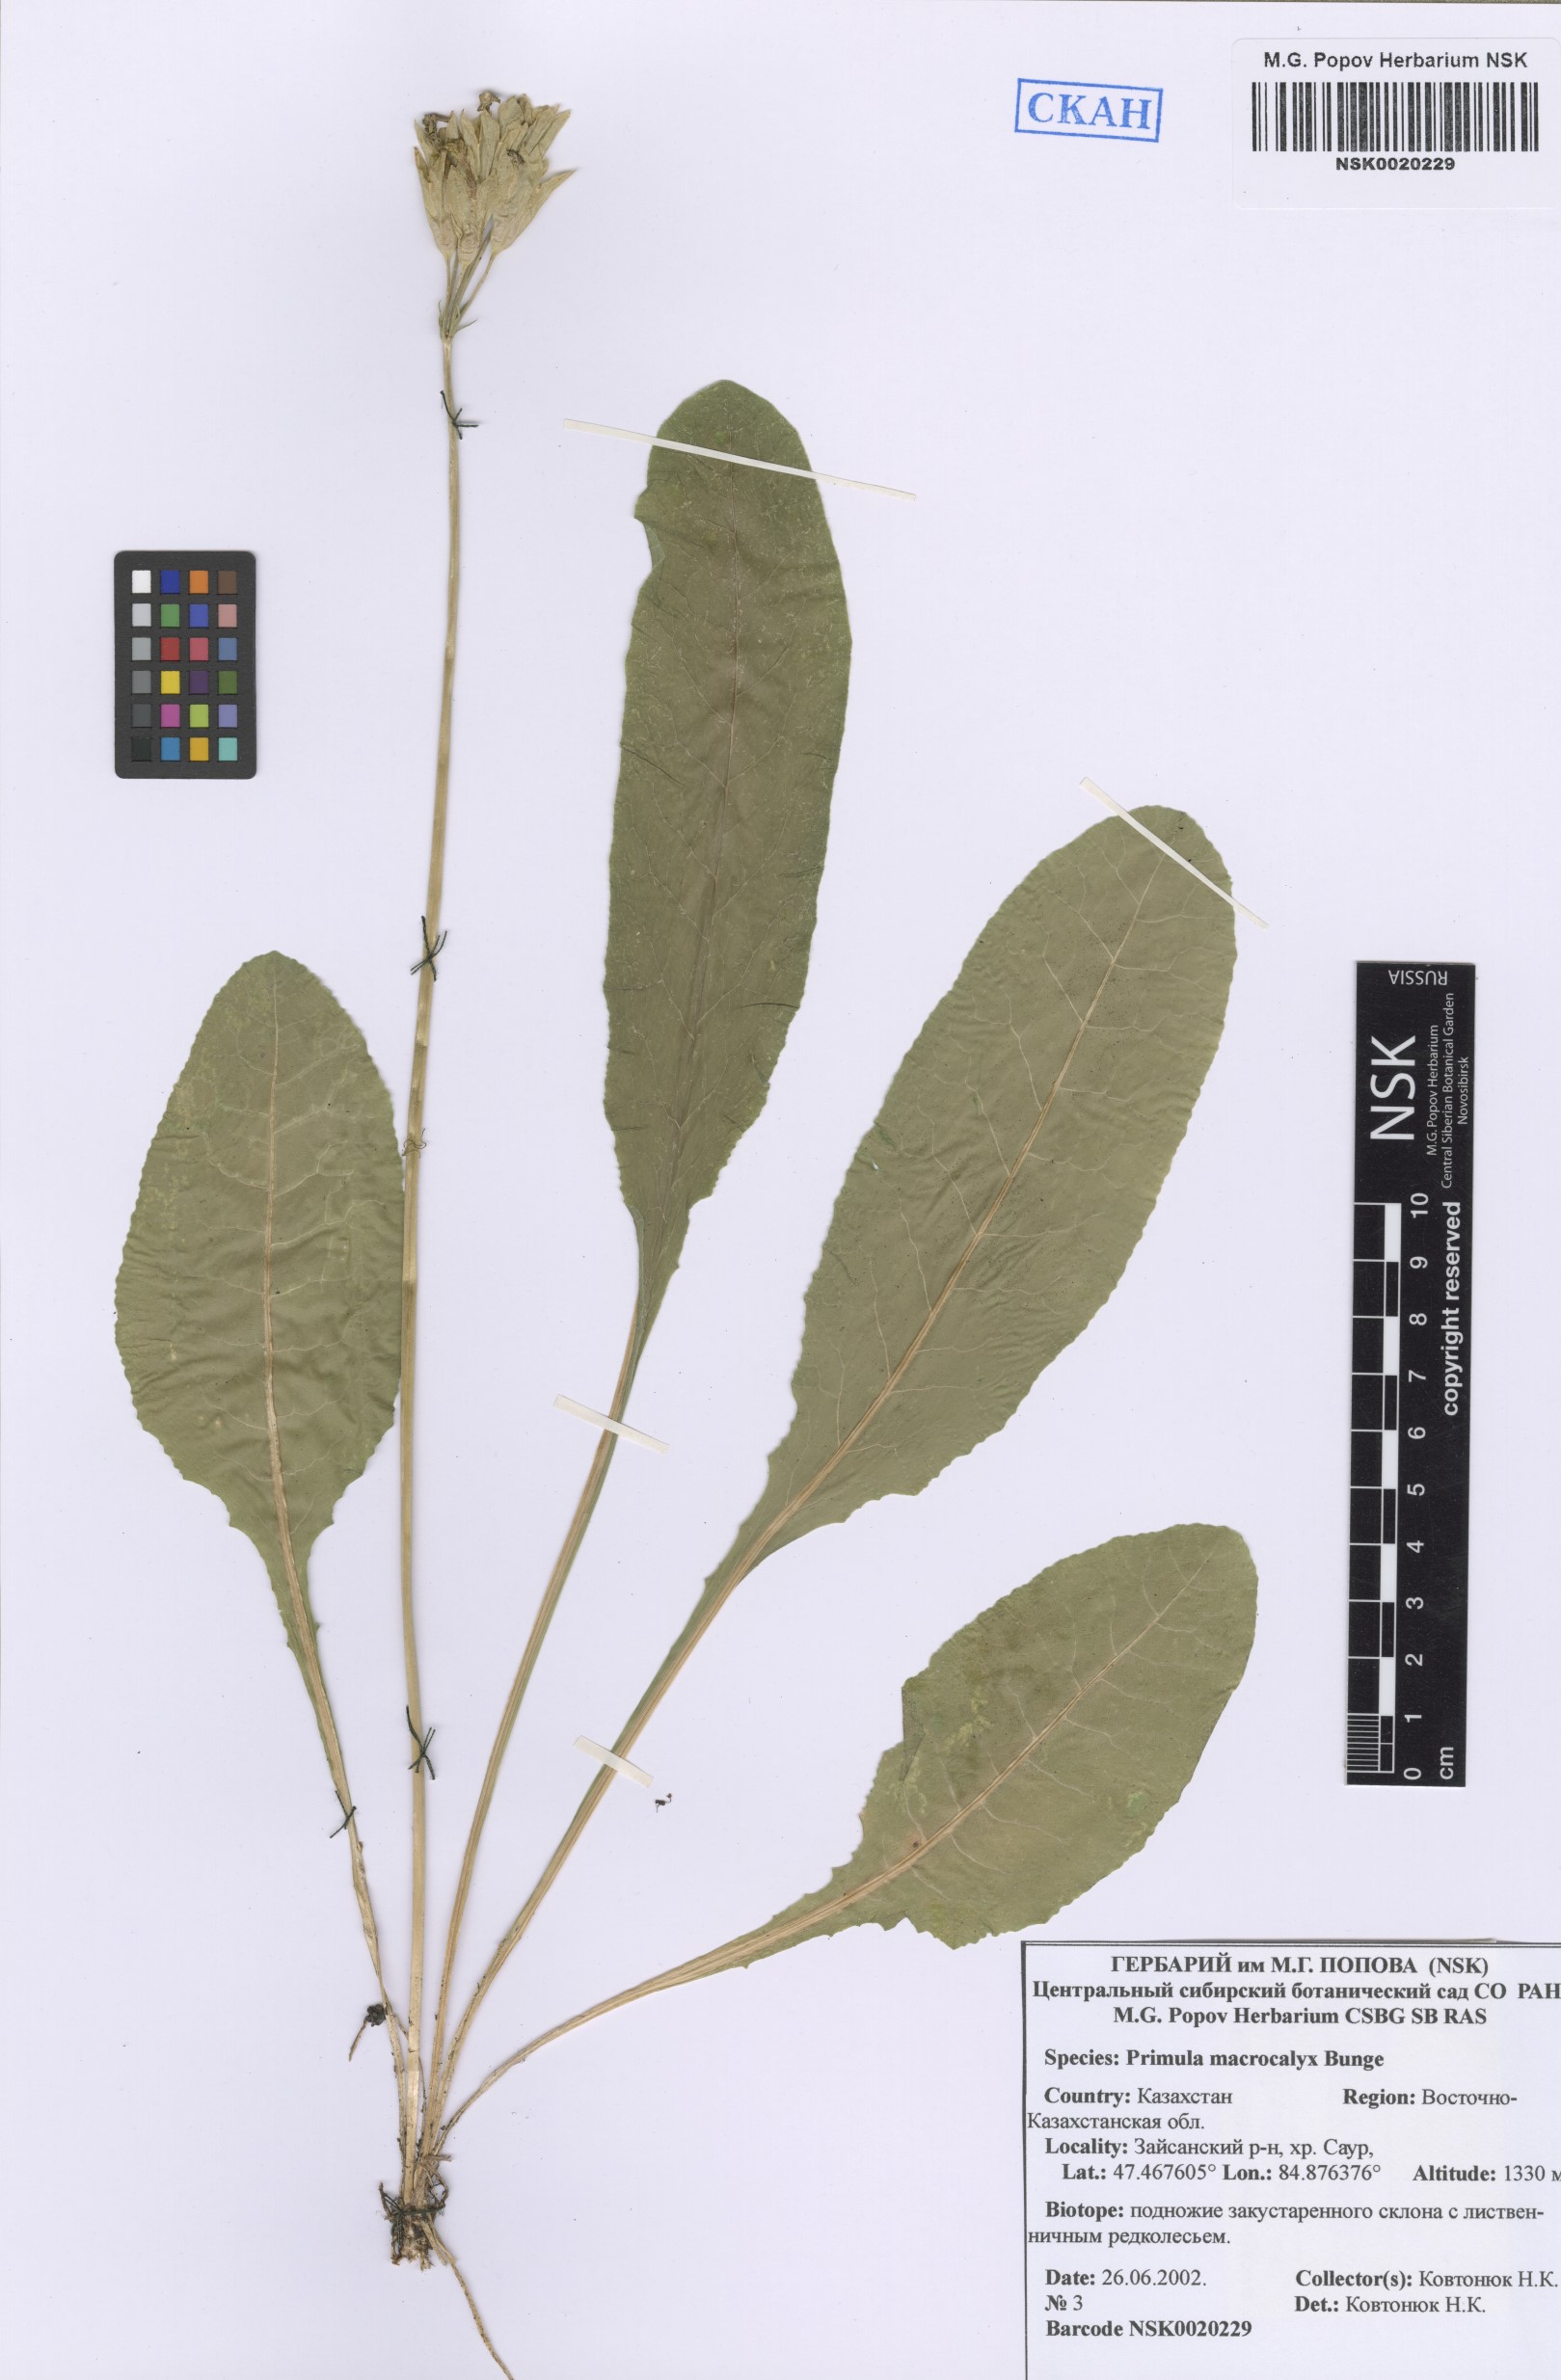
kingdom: Plantae
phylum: Tracheophyta
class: Magnoliopsida
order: Ericales
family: Primulaceae
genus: Primula
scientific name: Primula veris
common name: Cowslip
